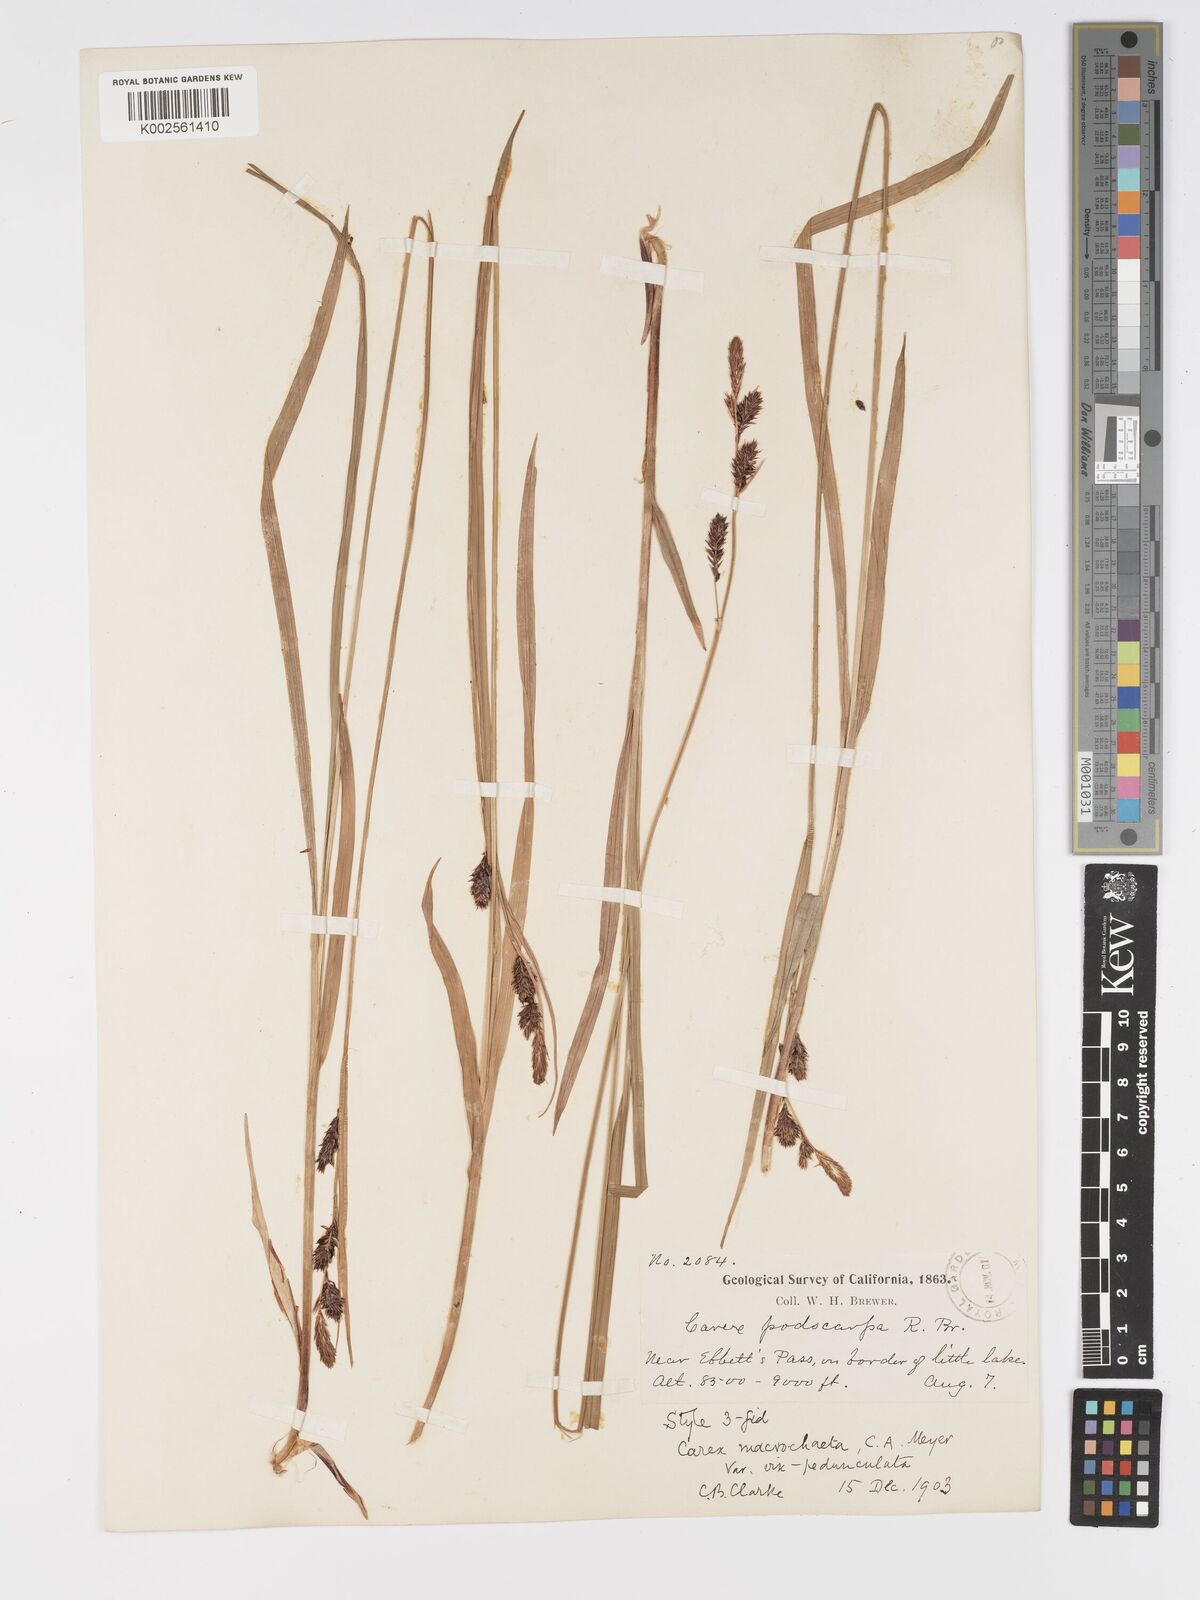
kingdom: Plantae
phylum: Tracheophyta
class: Liliopsida
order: Poales
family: Cyperaceae
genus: Carex
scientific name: Carex macrochaeta
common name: Alaska large awn sedge
